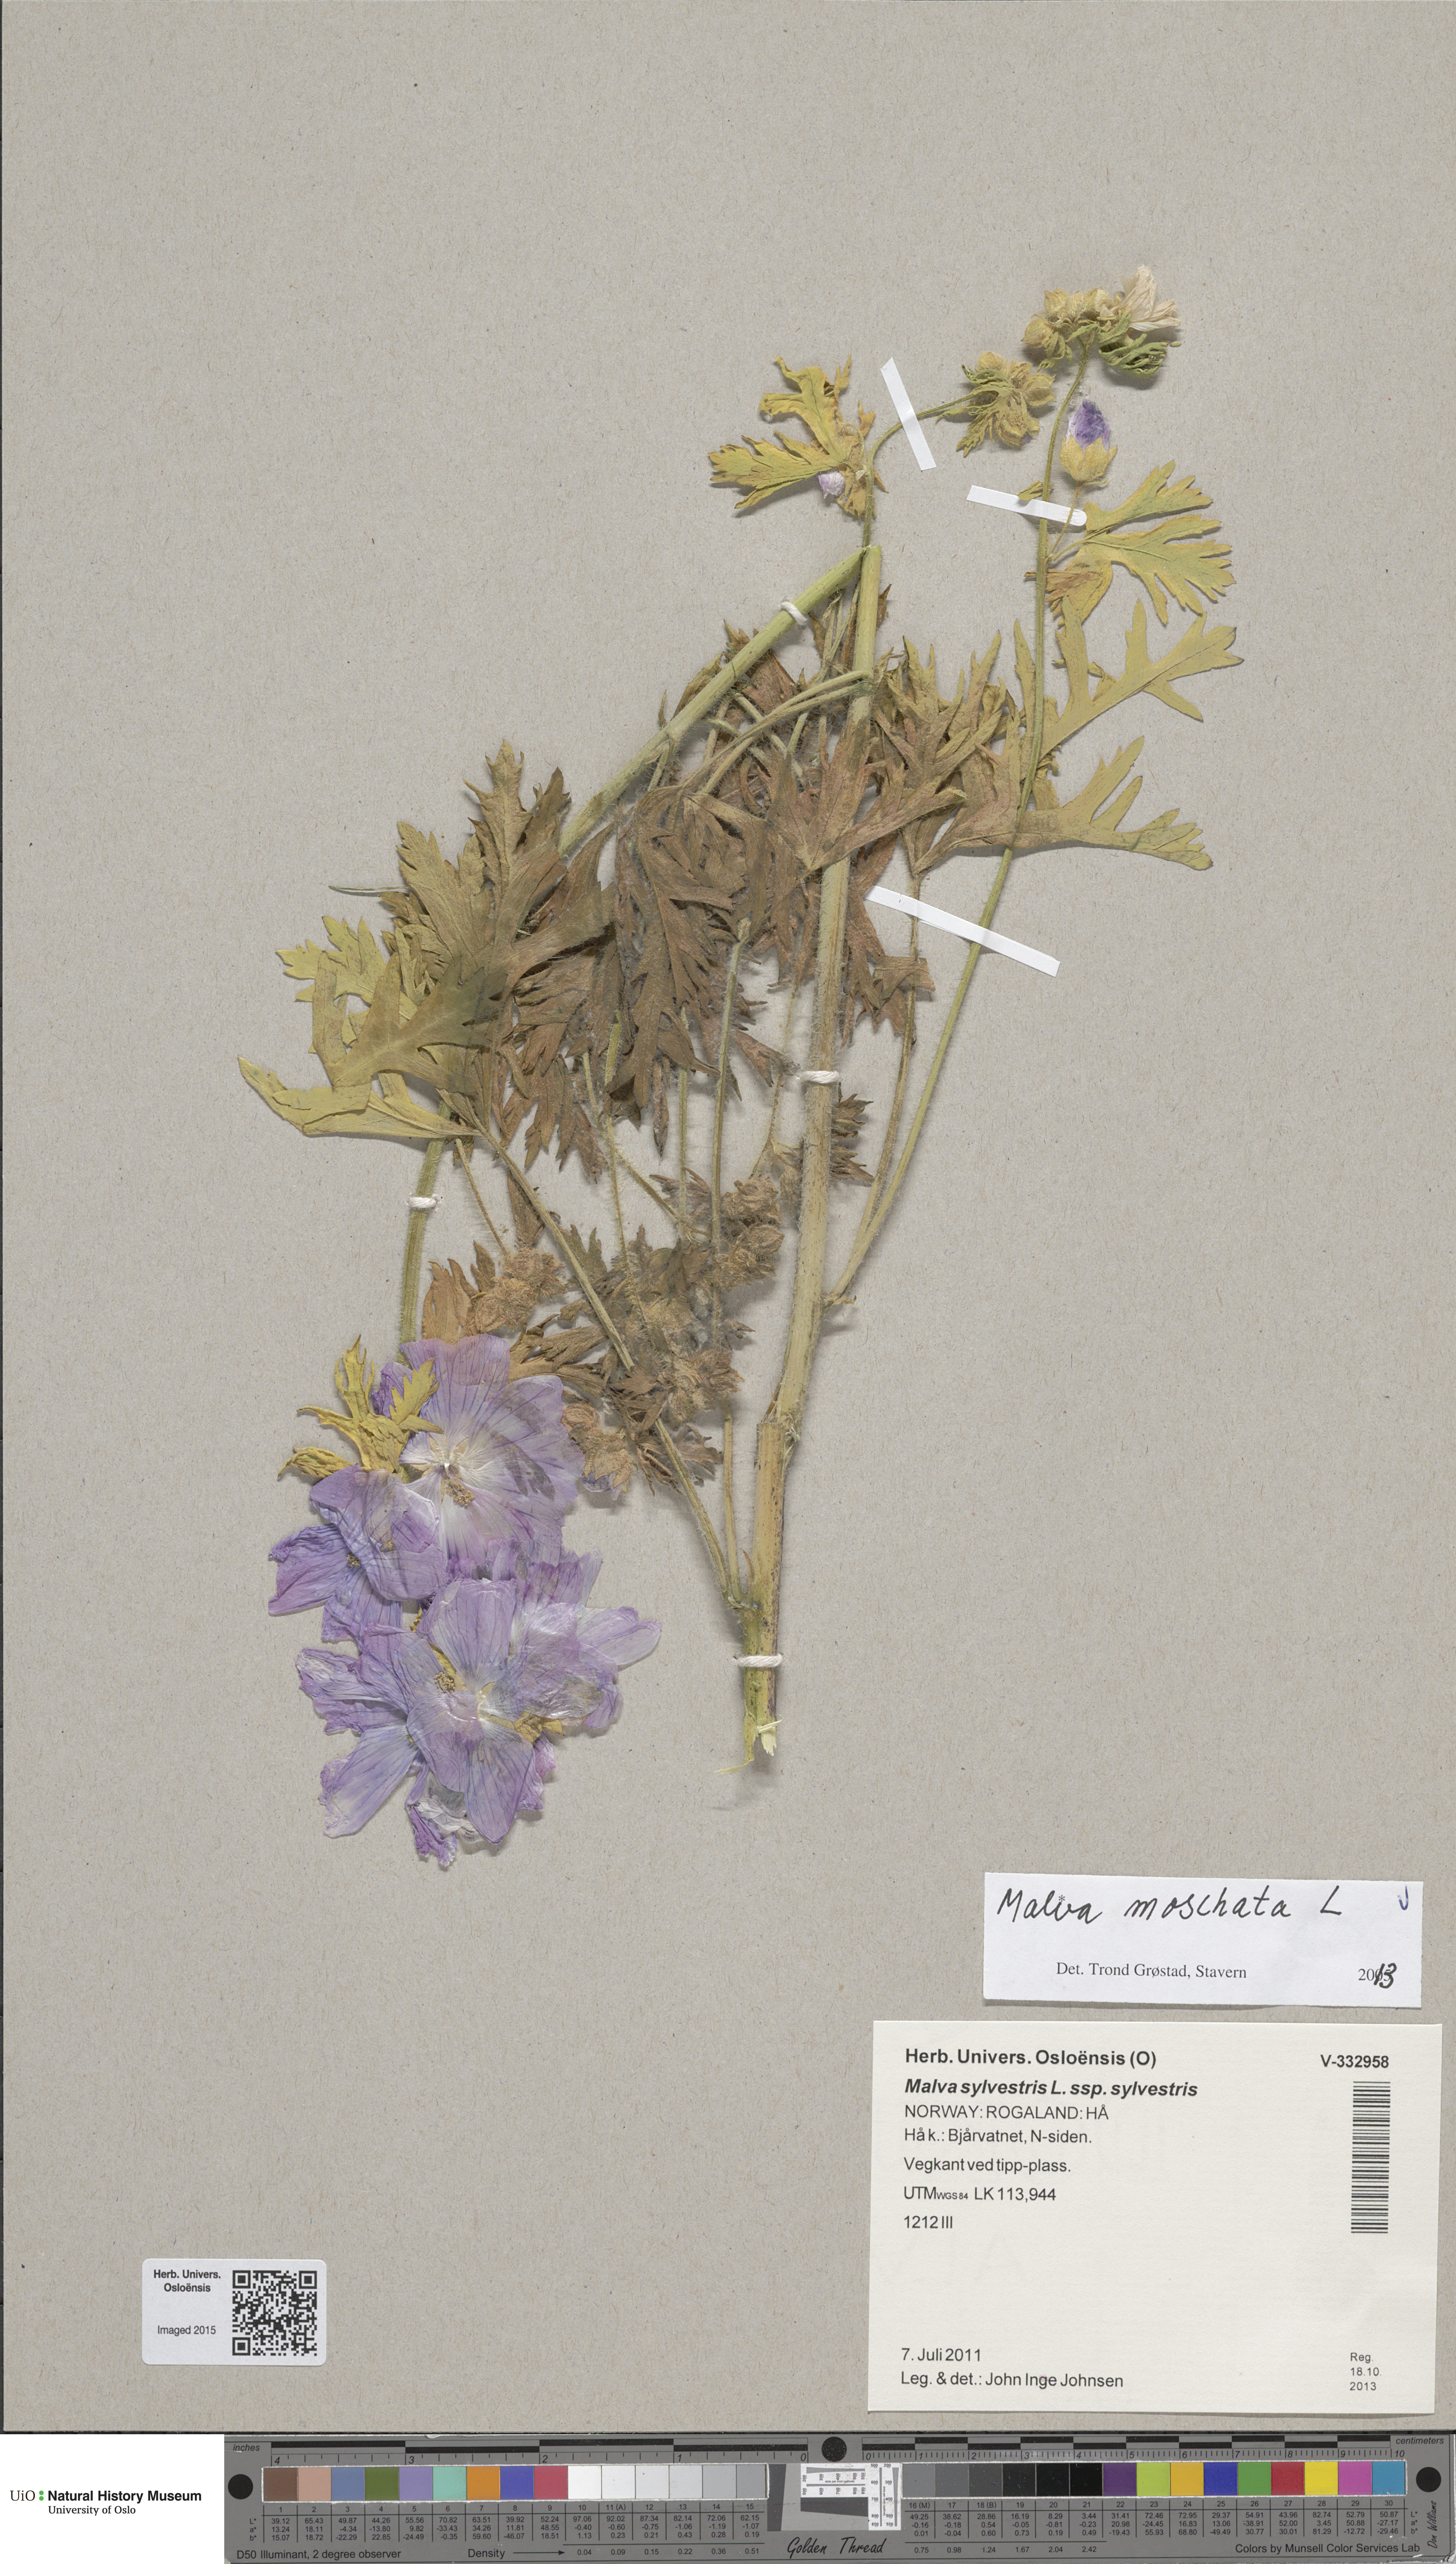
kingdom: Plantae
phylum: Tracheophyta
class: Magnoliopsida
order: Malvales
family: Malvaceae
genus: Malva
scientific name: Malva moschata
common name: Musk mallow
